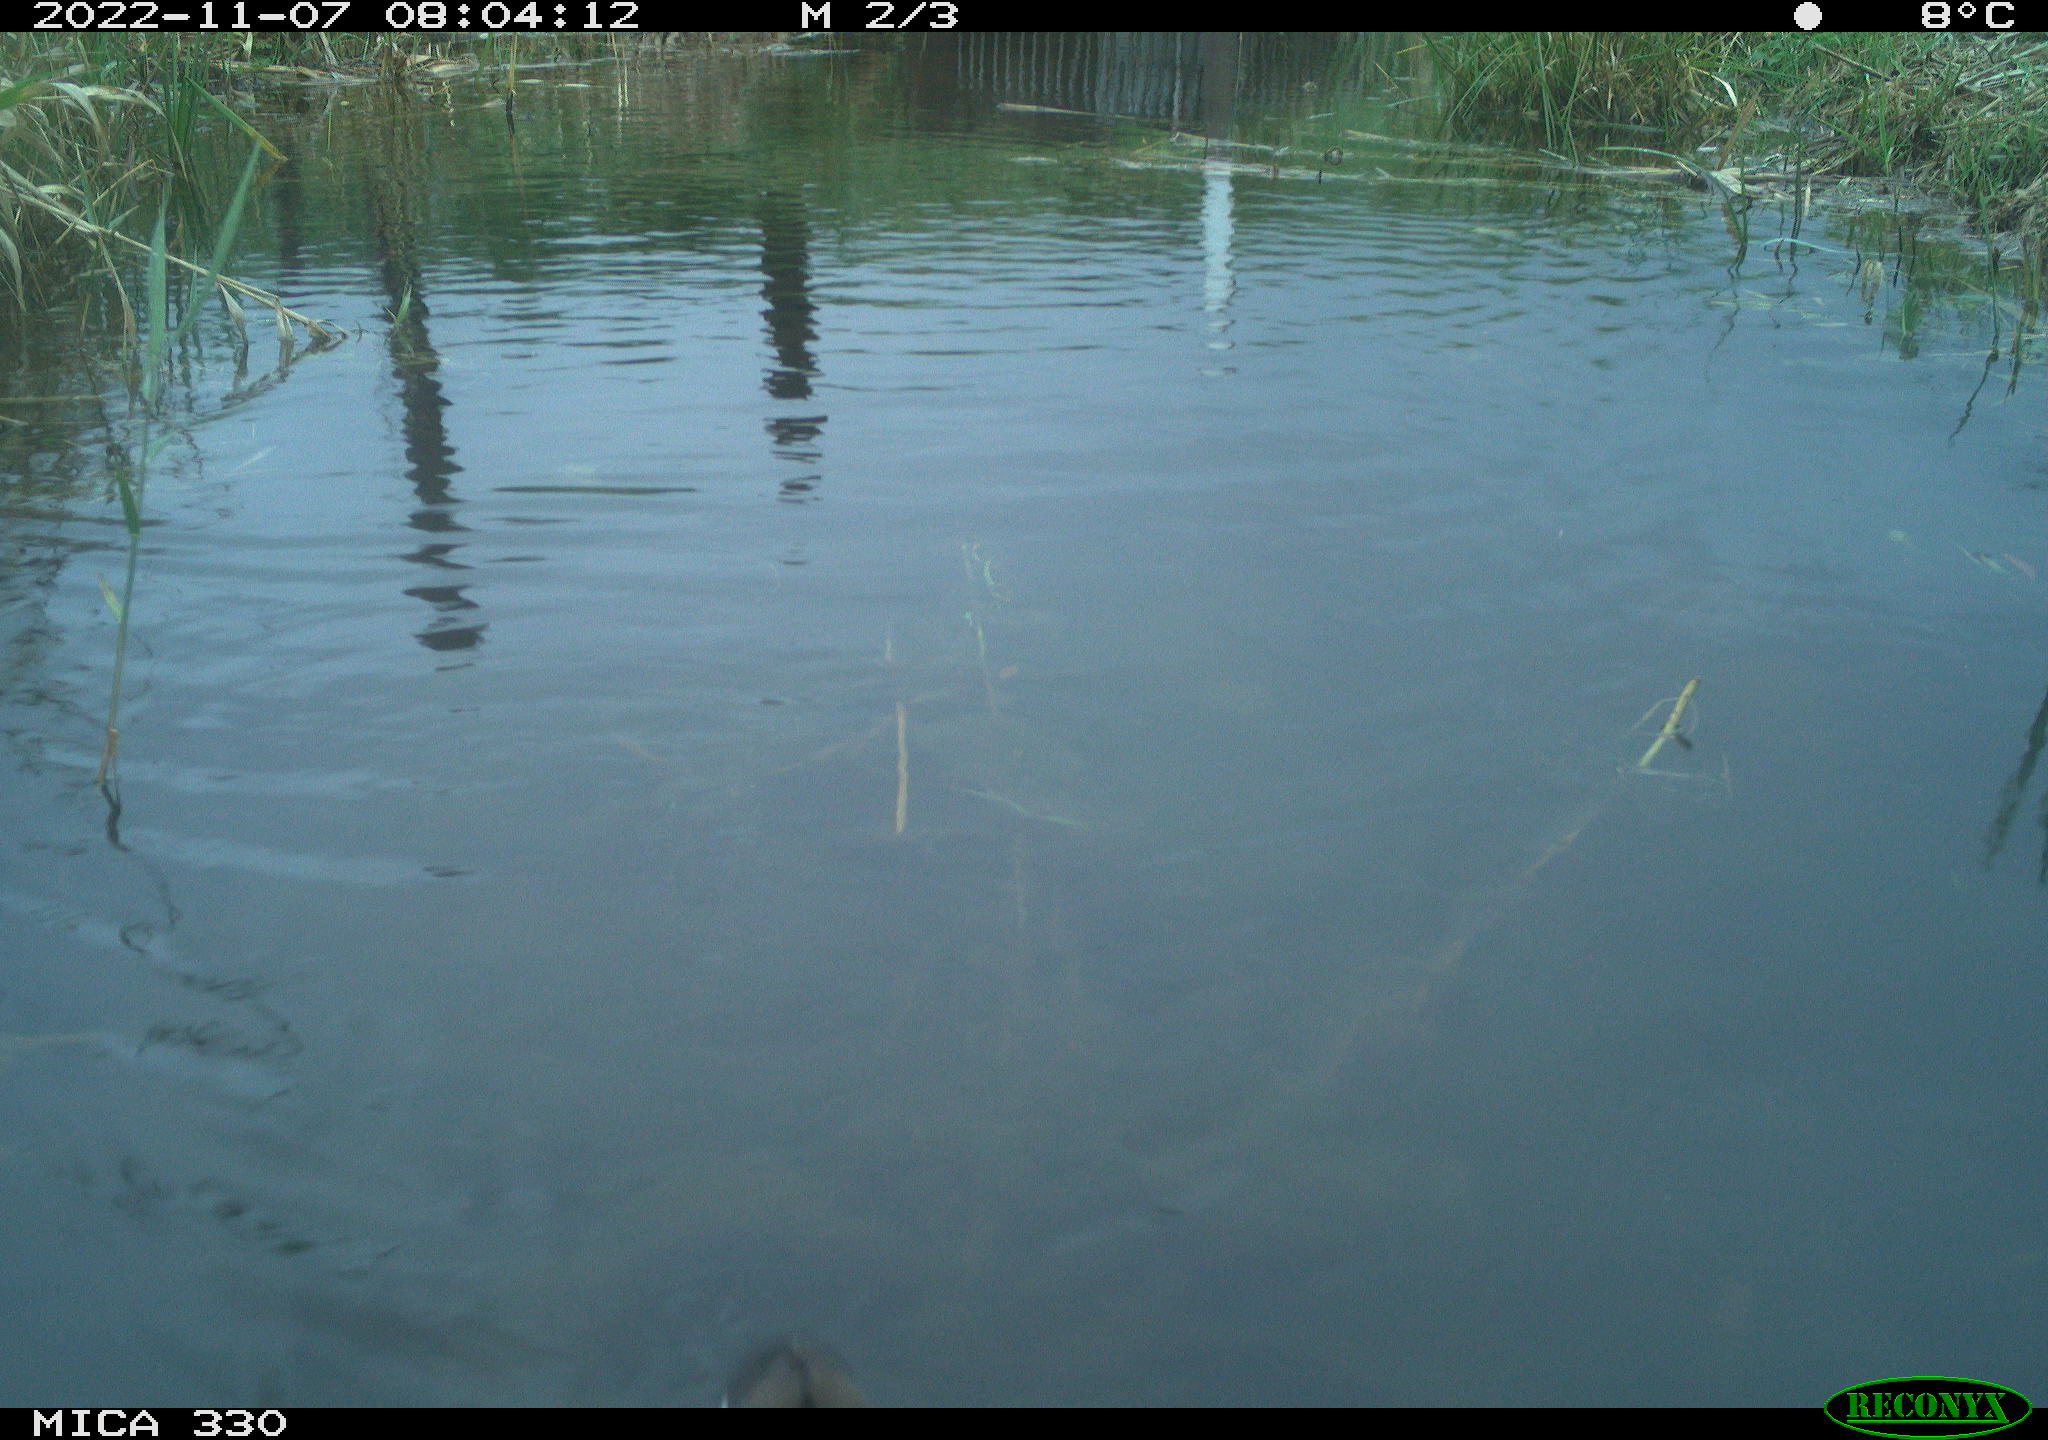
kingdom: Animalia
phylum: Chordata
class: Aves
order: Gruiformes
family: Rallidae
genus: Gallinula
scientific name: Gallinula chloropus
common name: Common moorhen
